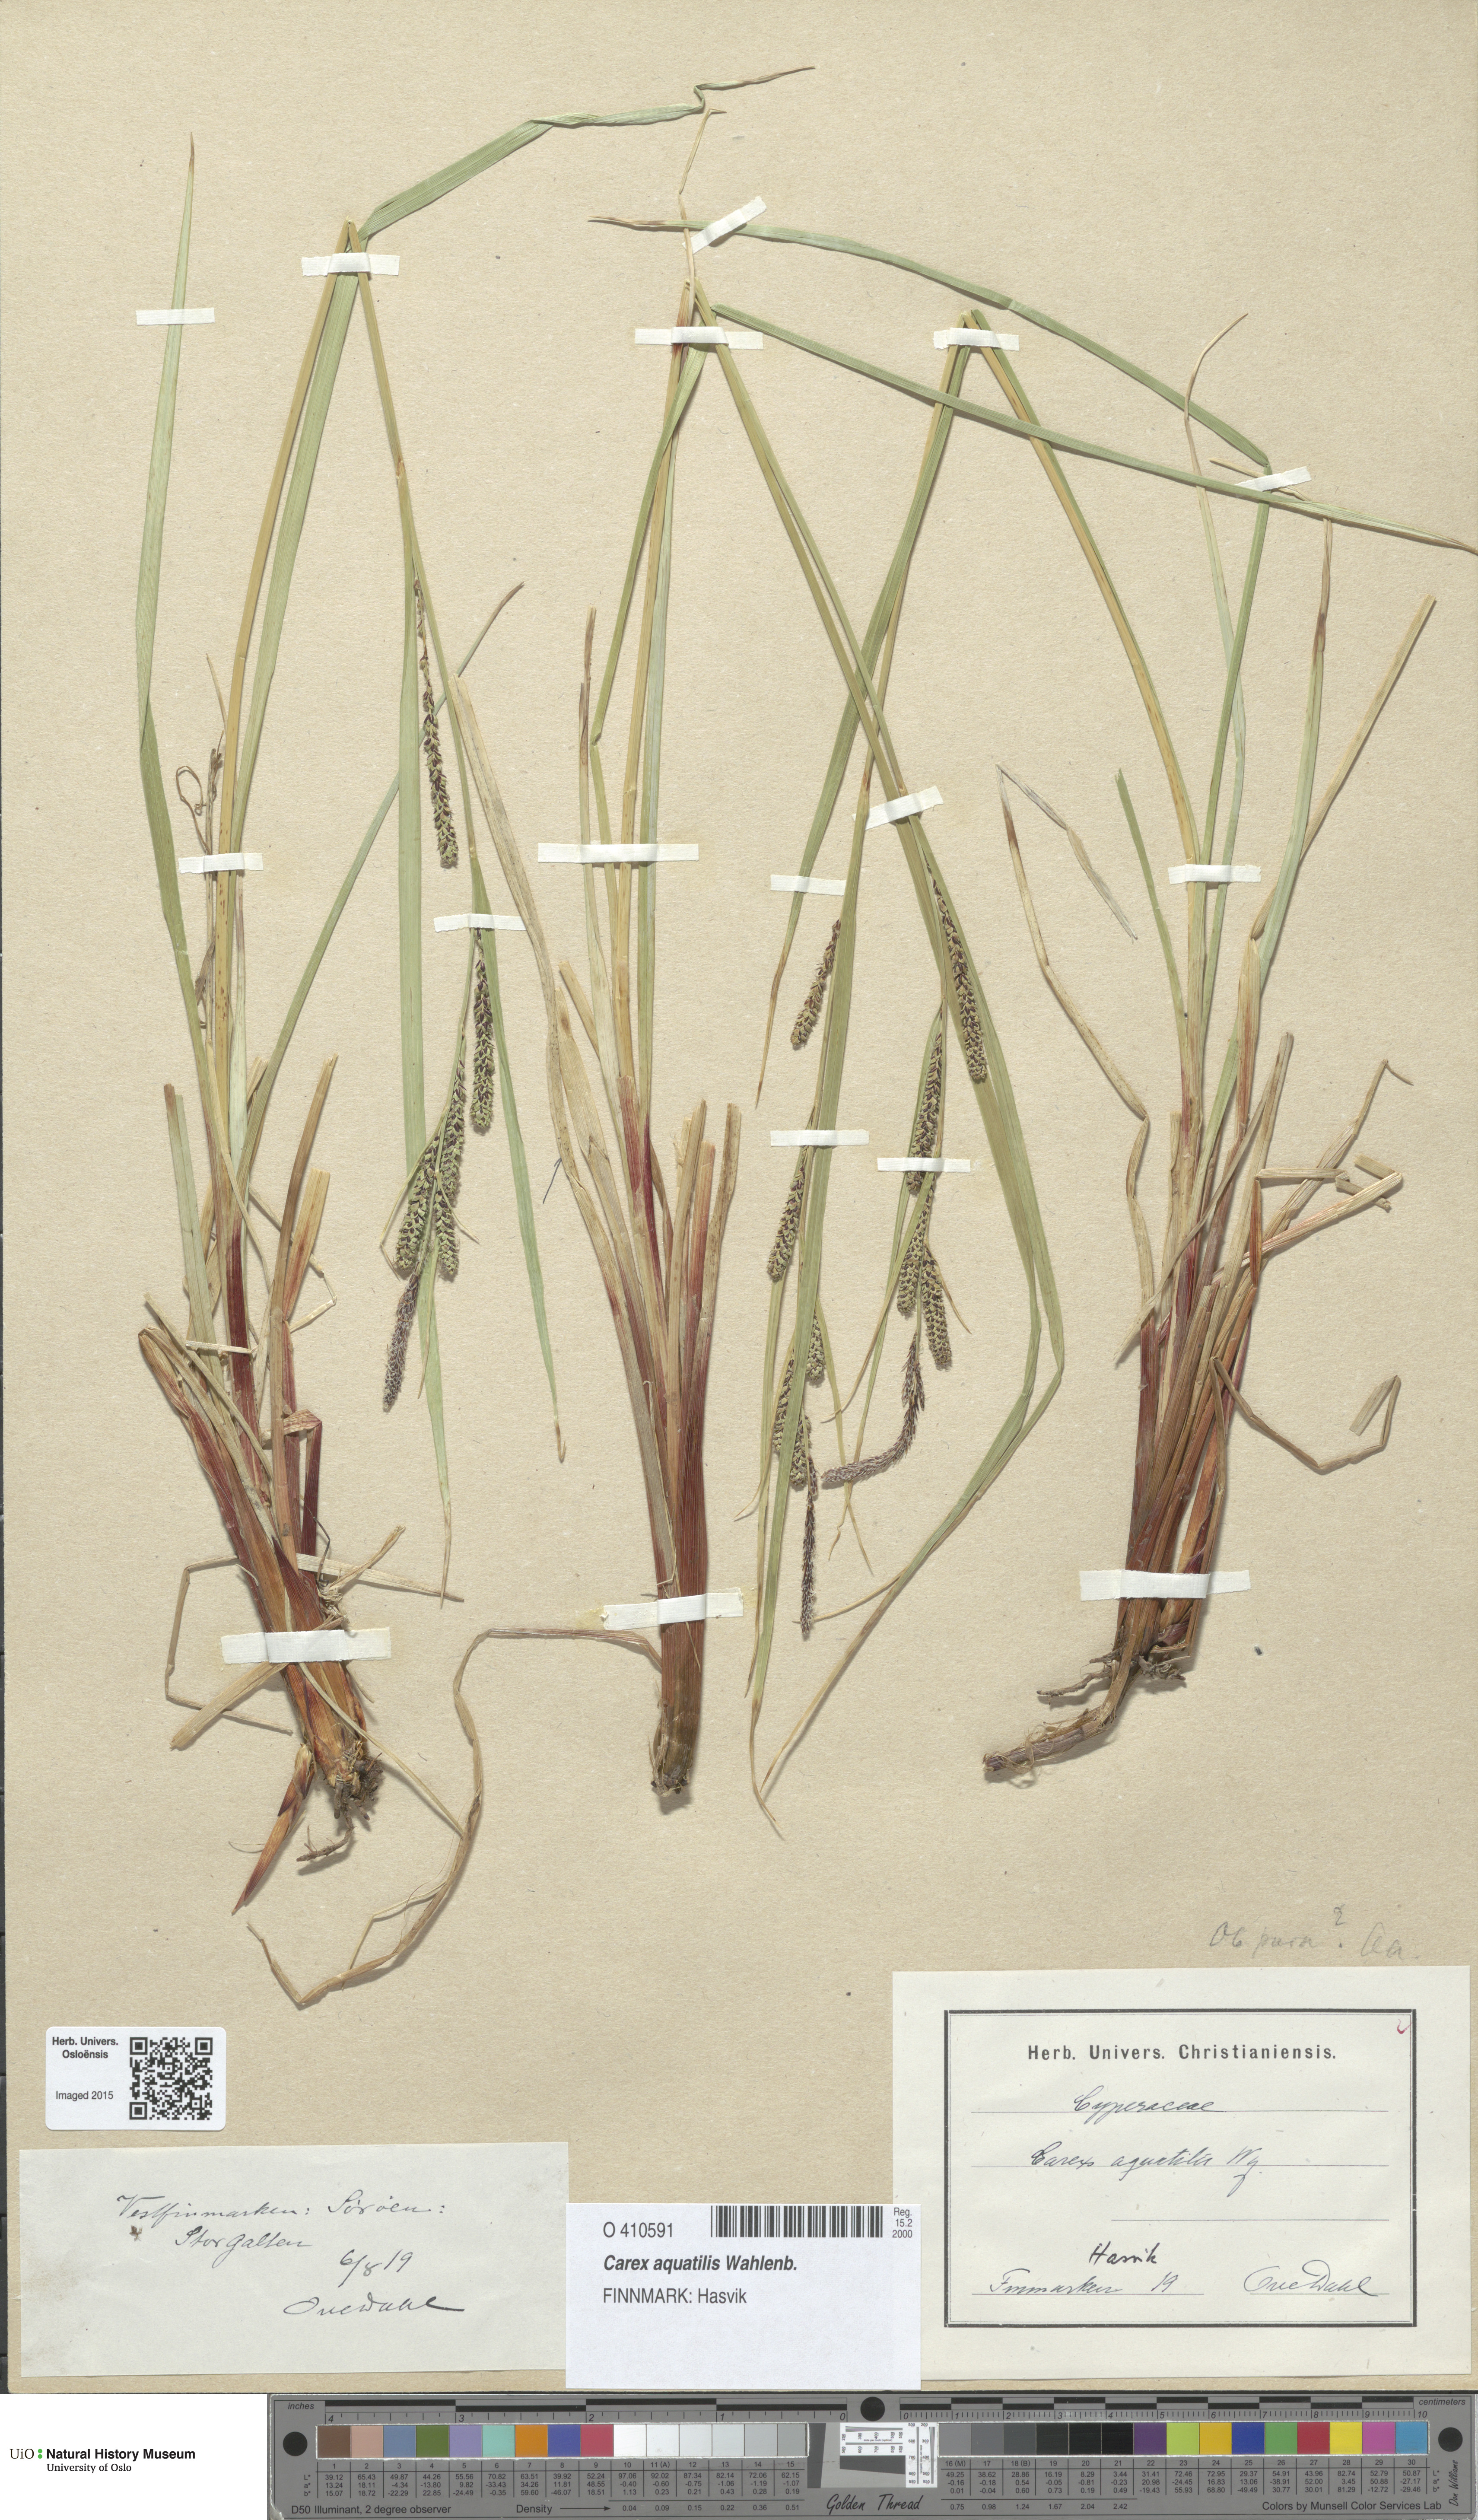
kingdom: Plantae
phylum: Tracheophyta
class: Liliopsida
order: Poales
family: Cyperaceae
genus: Carex
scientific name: Carex aquatilis
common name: Water sedge
